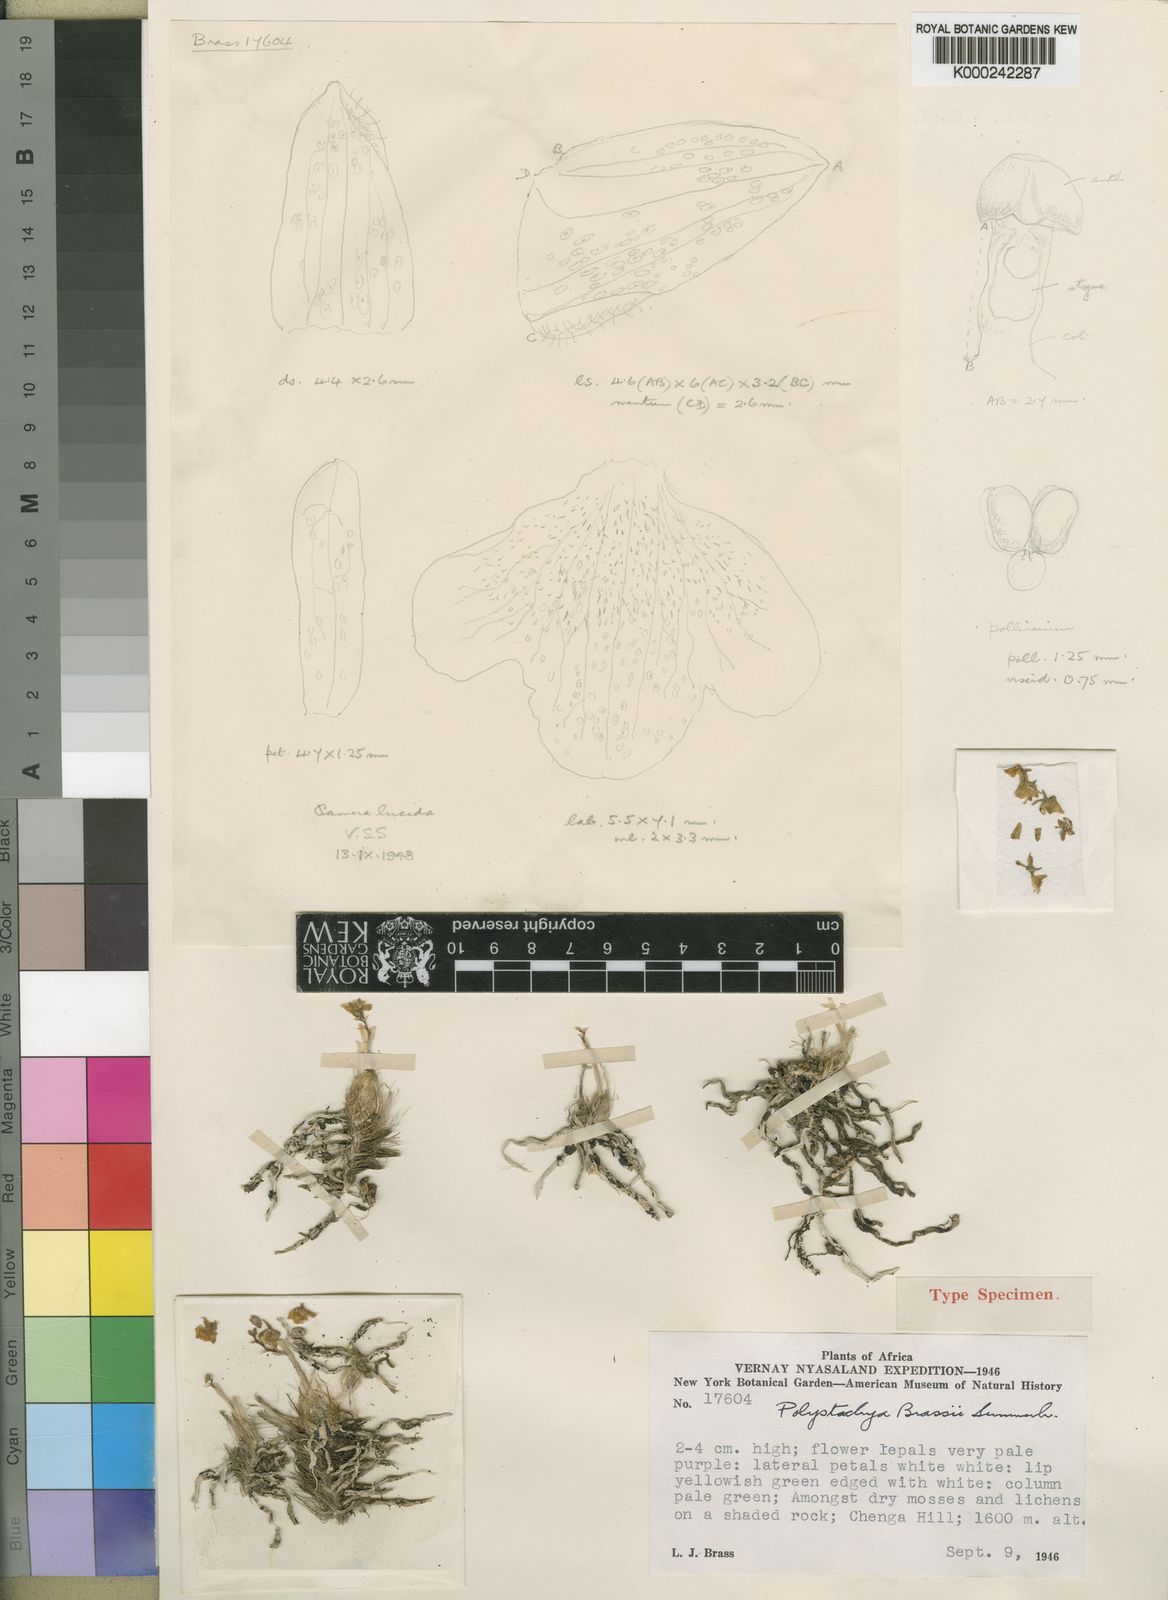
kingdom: Plantae
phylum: Tracheophyta
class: Liliopsida
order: Asparagales
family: Orchidaceae
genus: Polystachya
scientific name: Polystachya brassii
